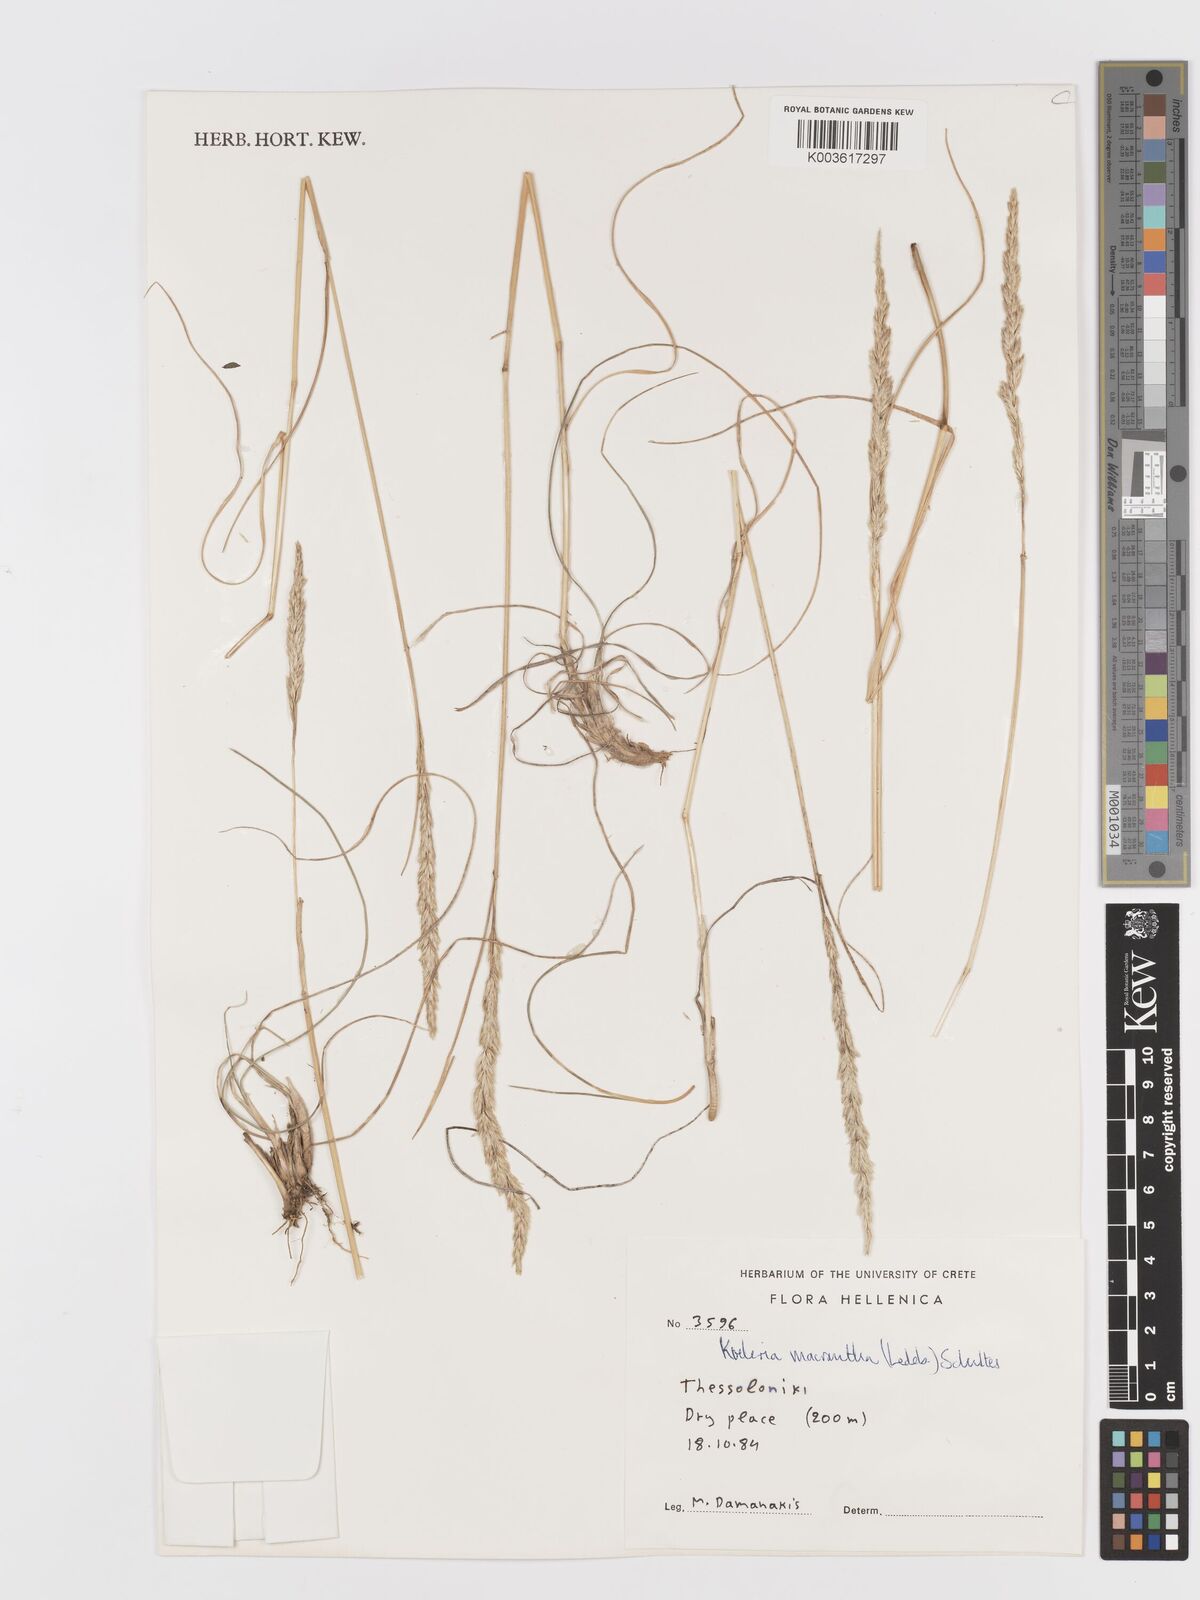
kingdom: Plantae
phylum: Tracheophyta
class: Liliopsida
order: Poales
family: Poaceae
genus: Koeleria
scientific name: Koeleria macrantha
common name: Crested hair-grass
